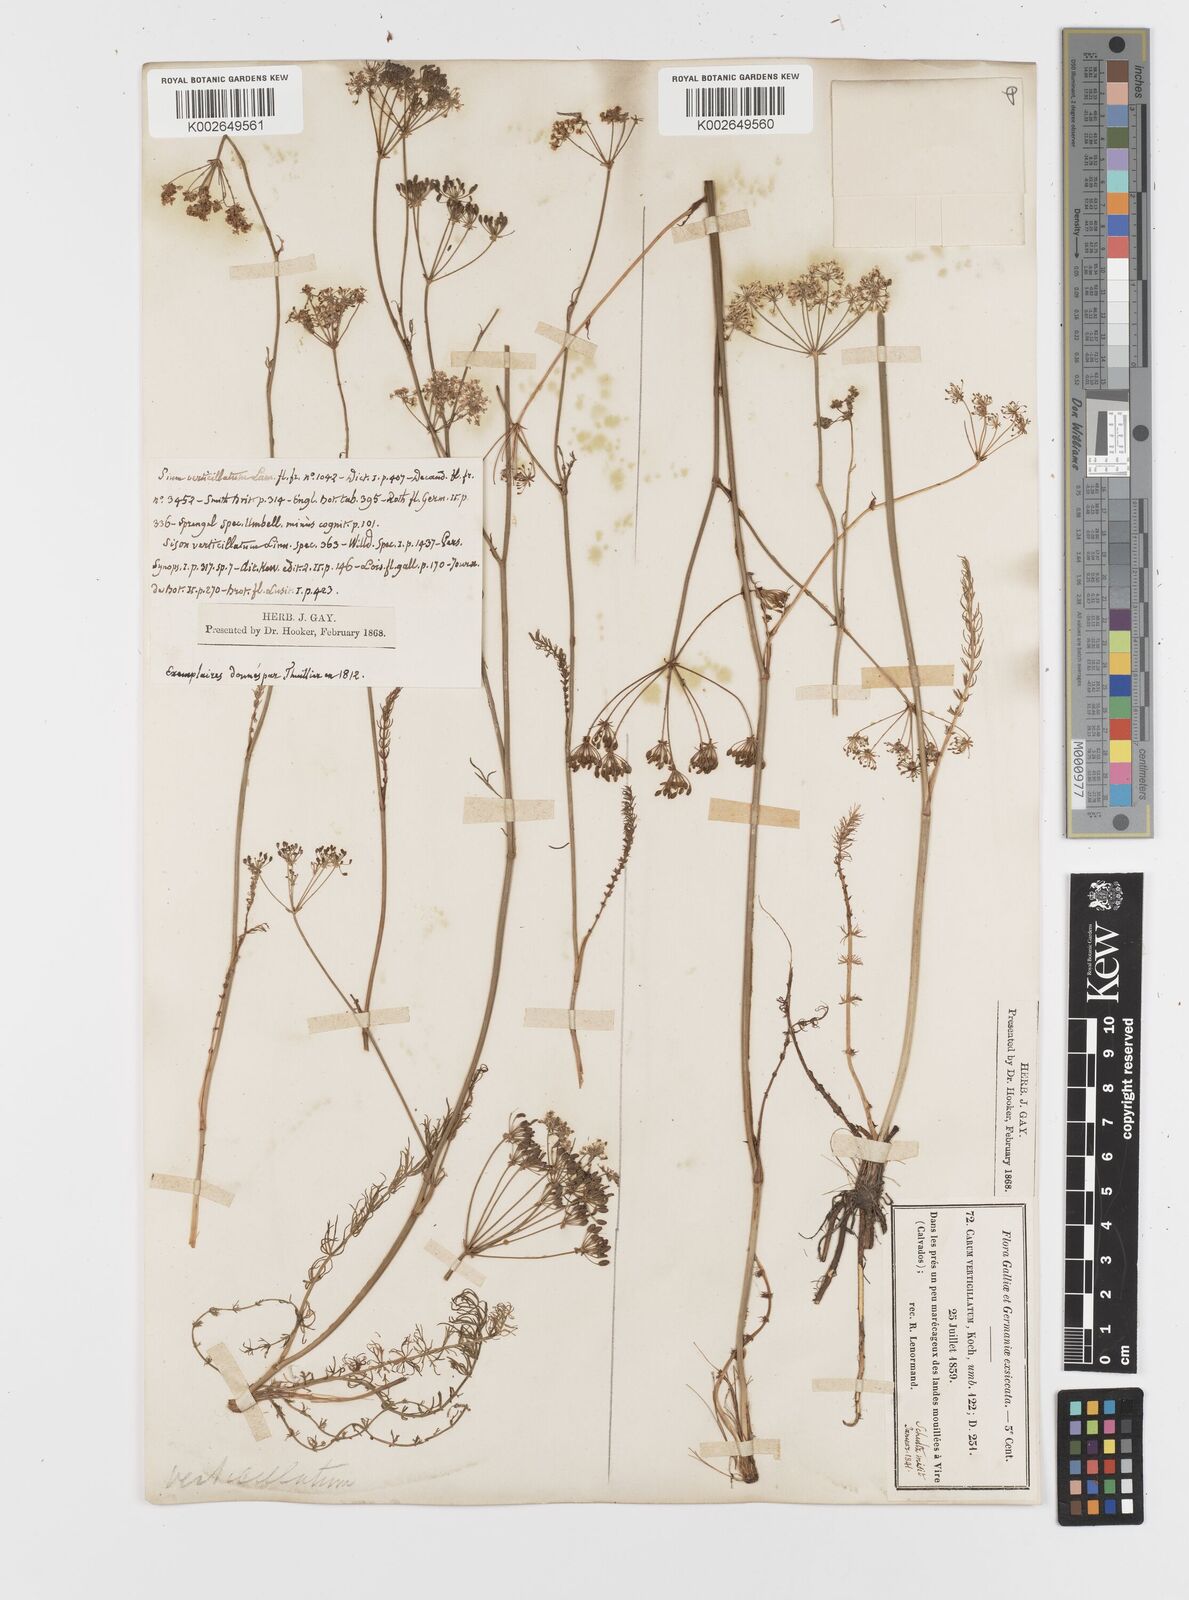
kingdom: Plantae
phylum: Tracheophyta
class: Magnoliopsida
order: Apiales
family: Apiaceae
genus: Trocdaris
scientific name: Trocdaris verticillatum
